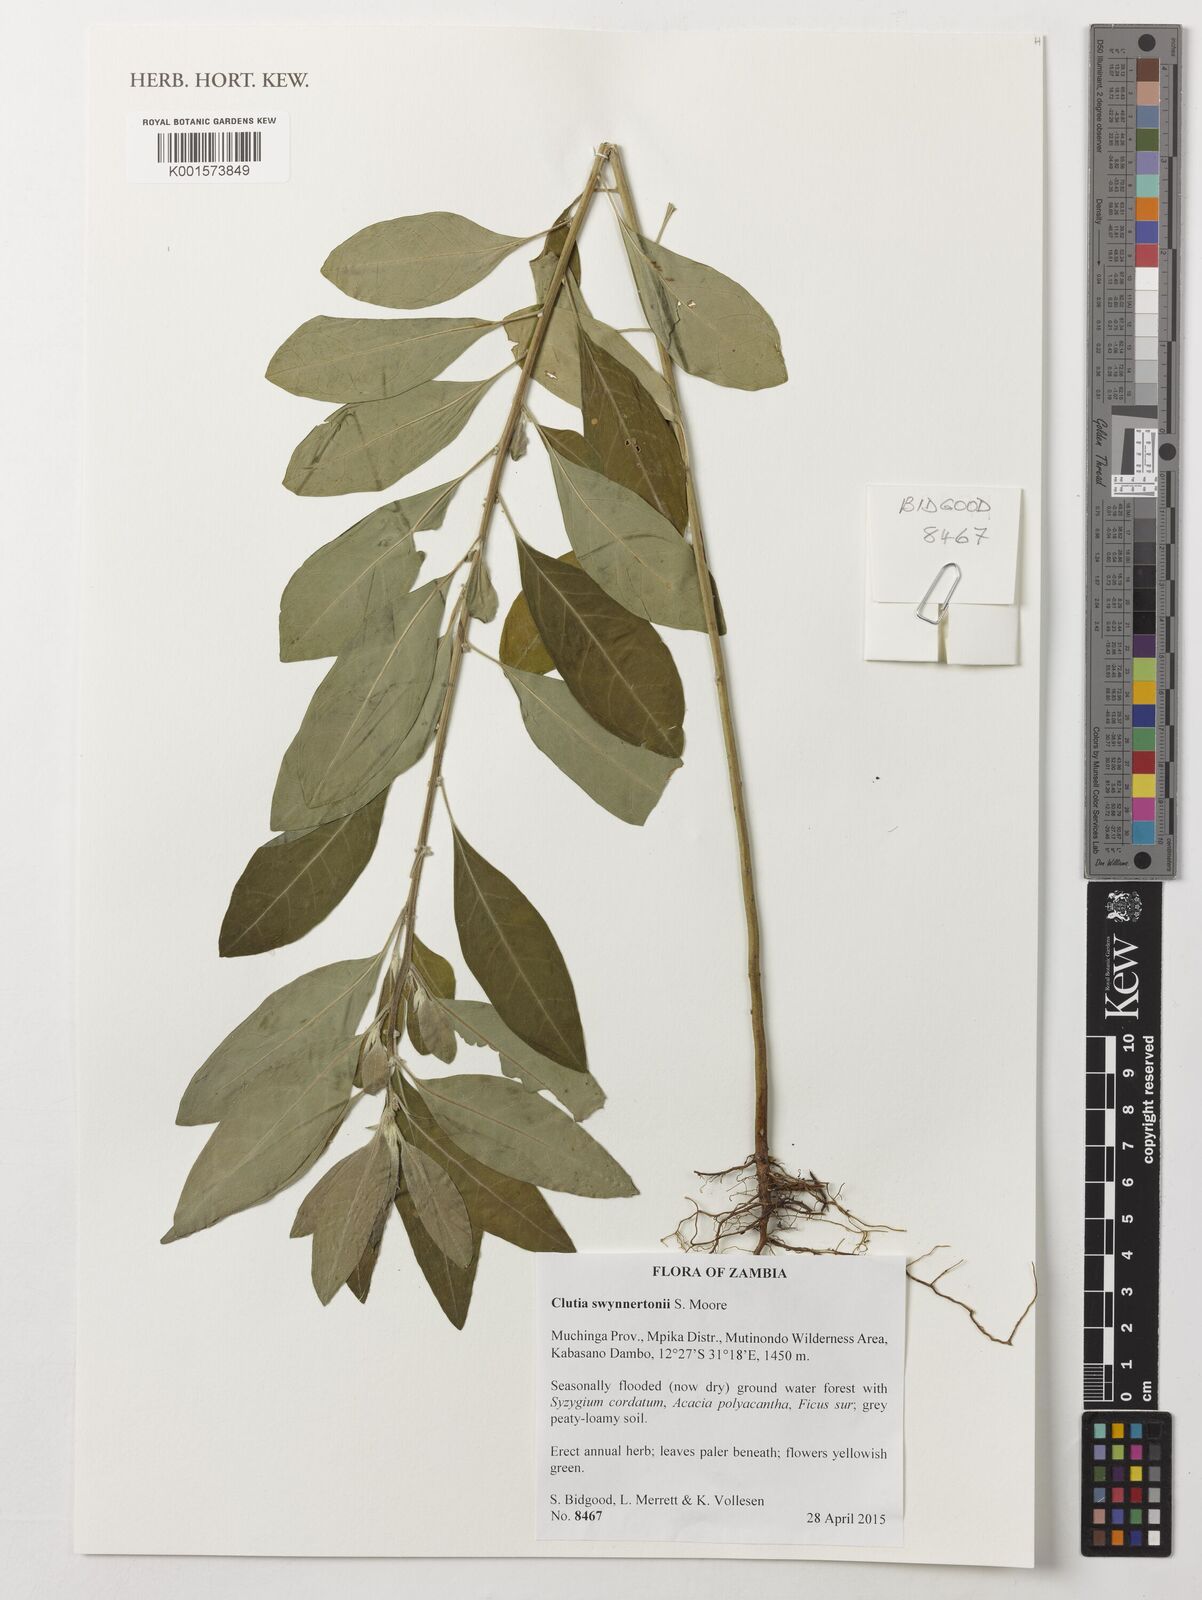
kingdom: Plantae
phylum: Tracheophyta
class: Magnoliopsida
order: Malpighiales
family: Peraceae
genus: Clutia
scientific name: Clutia swynnertonii
